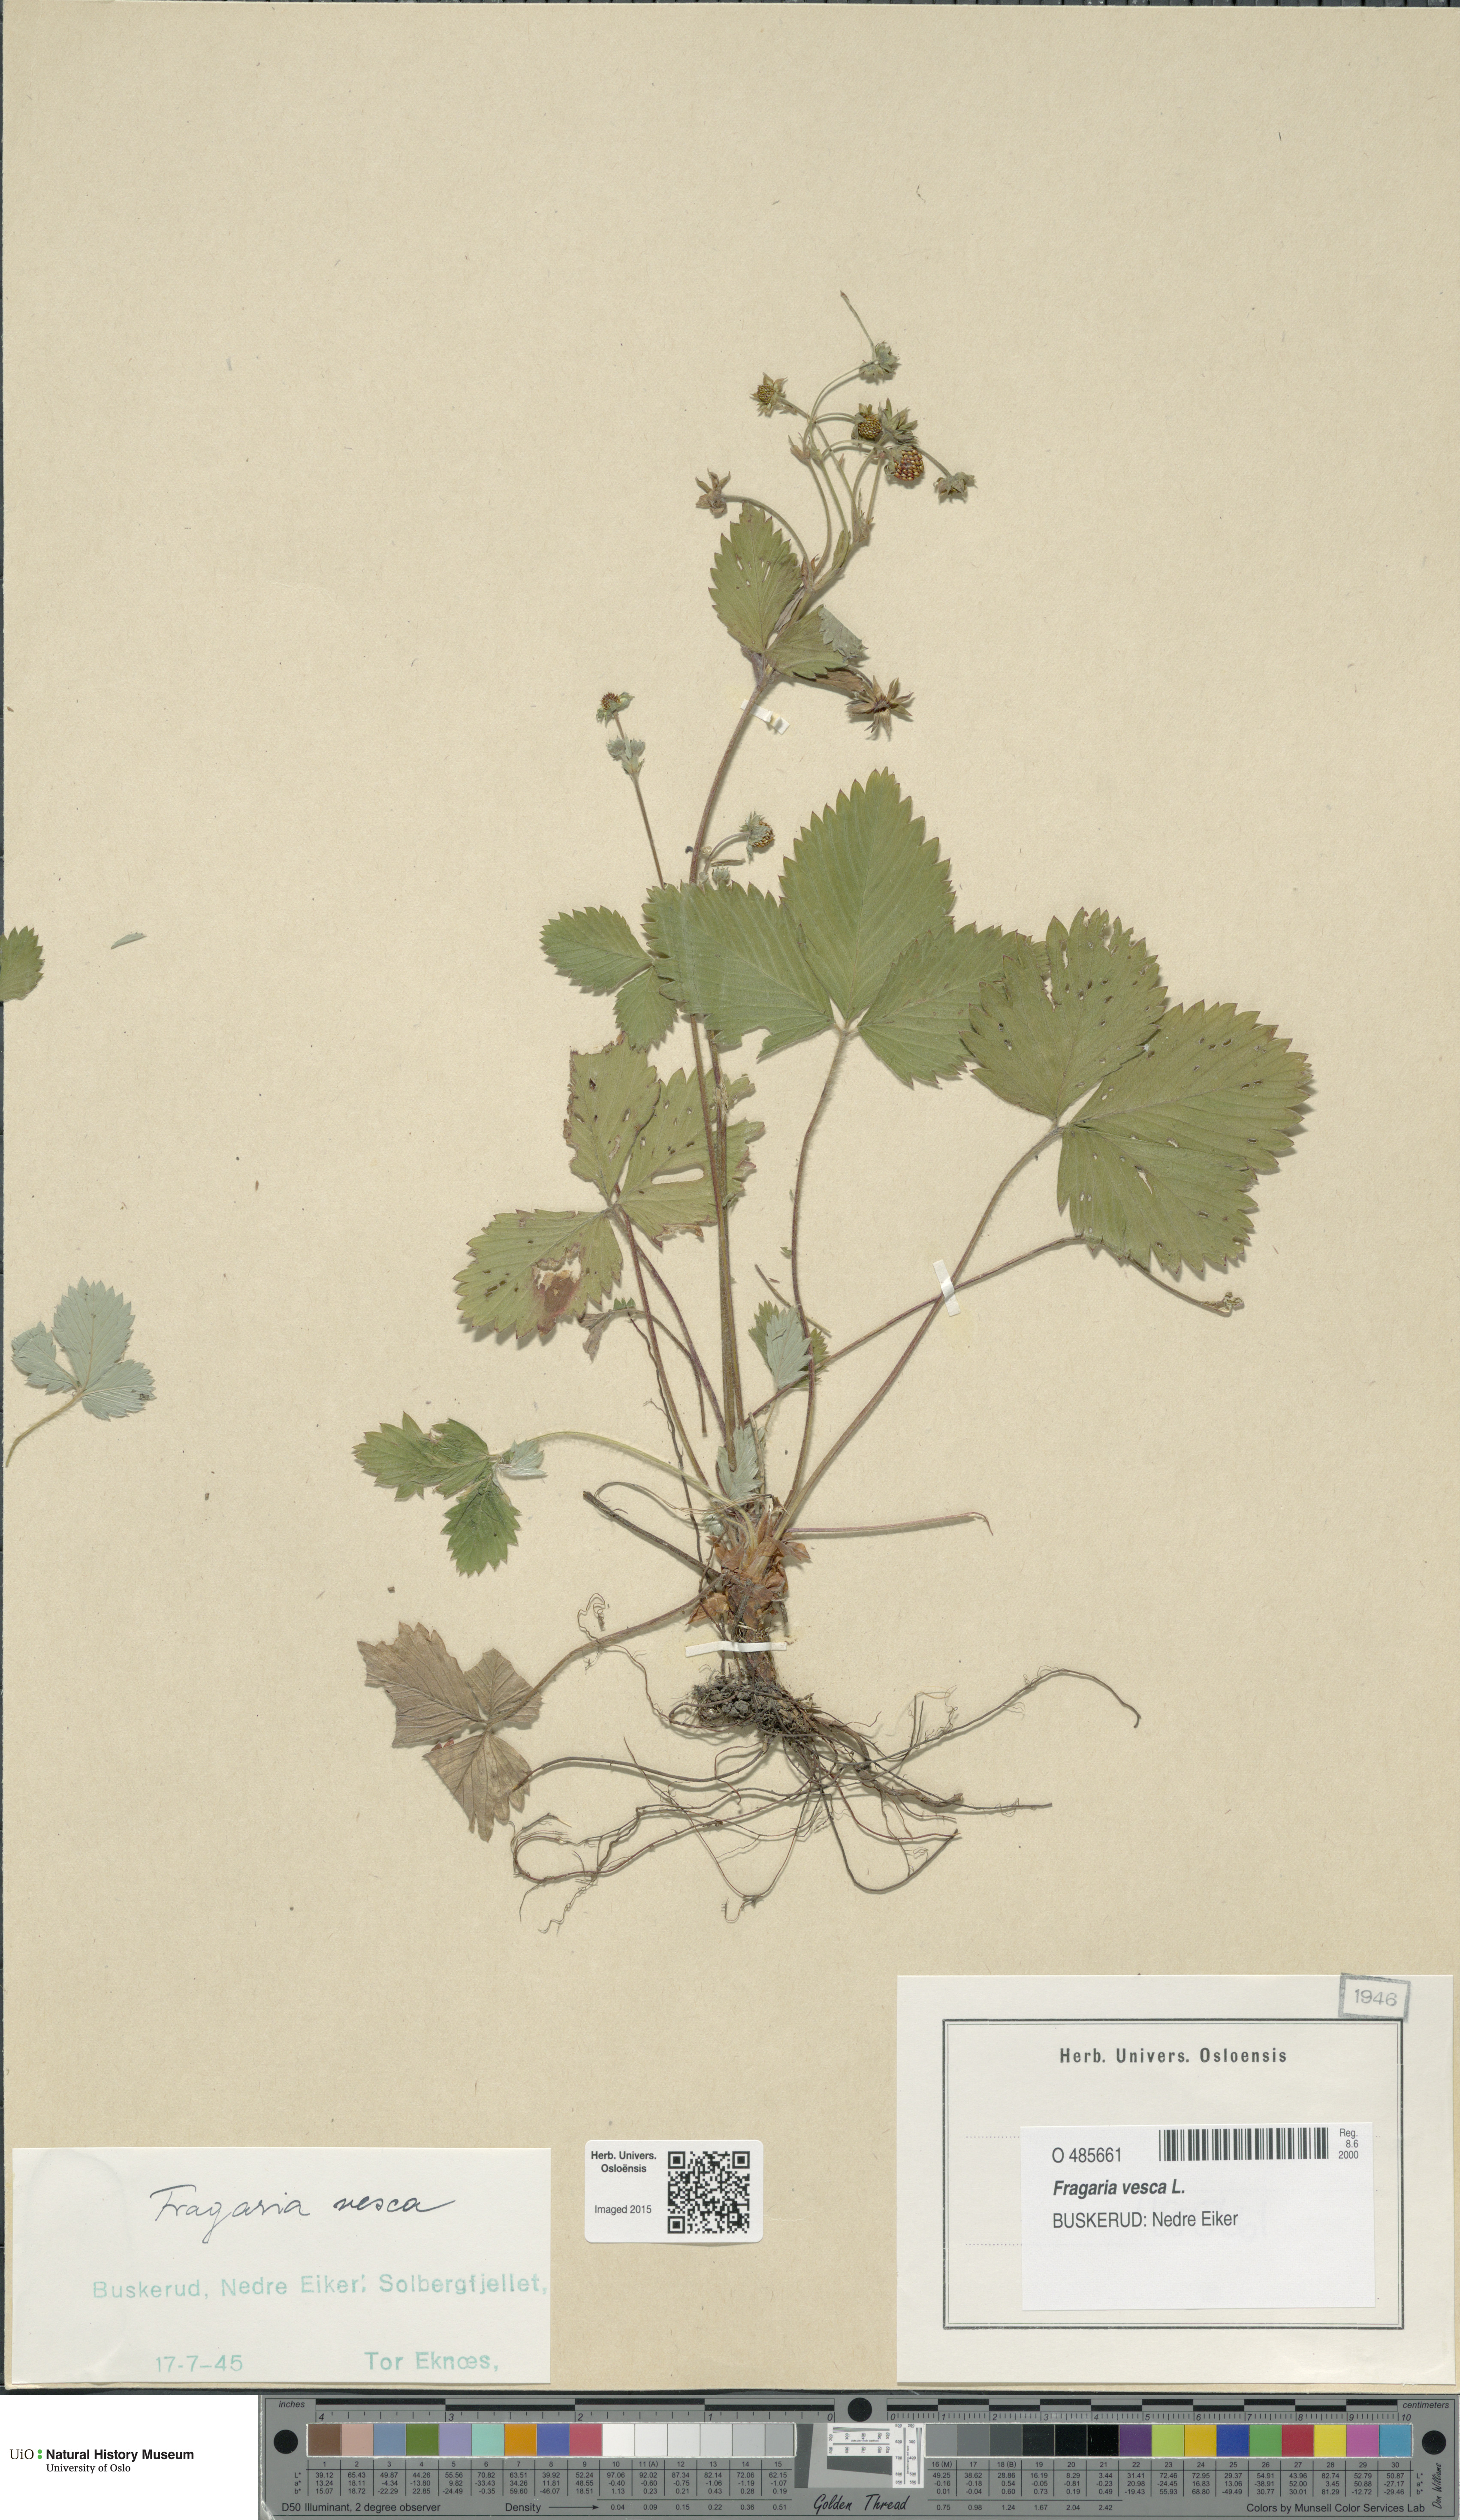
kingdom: Plantae
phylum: Tracheophyta
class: Magnoliopsida
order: Rosales
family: Rosaceae
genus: Fragaria
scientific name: Fragaria vesca
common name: Wild strawberry
